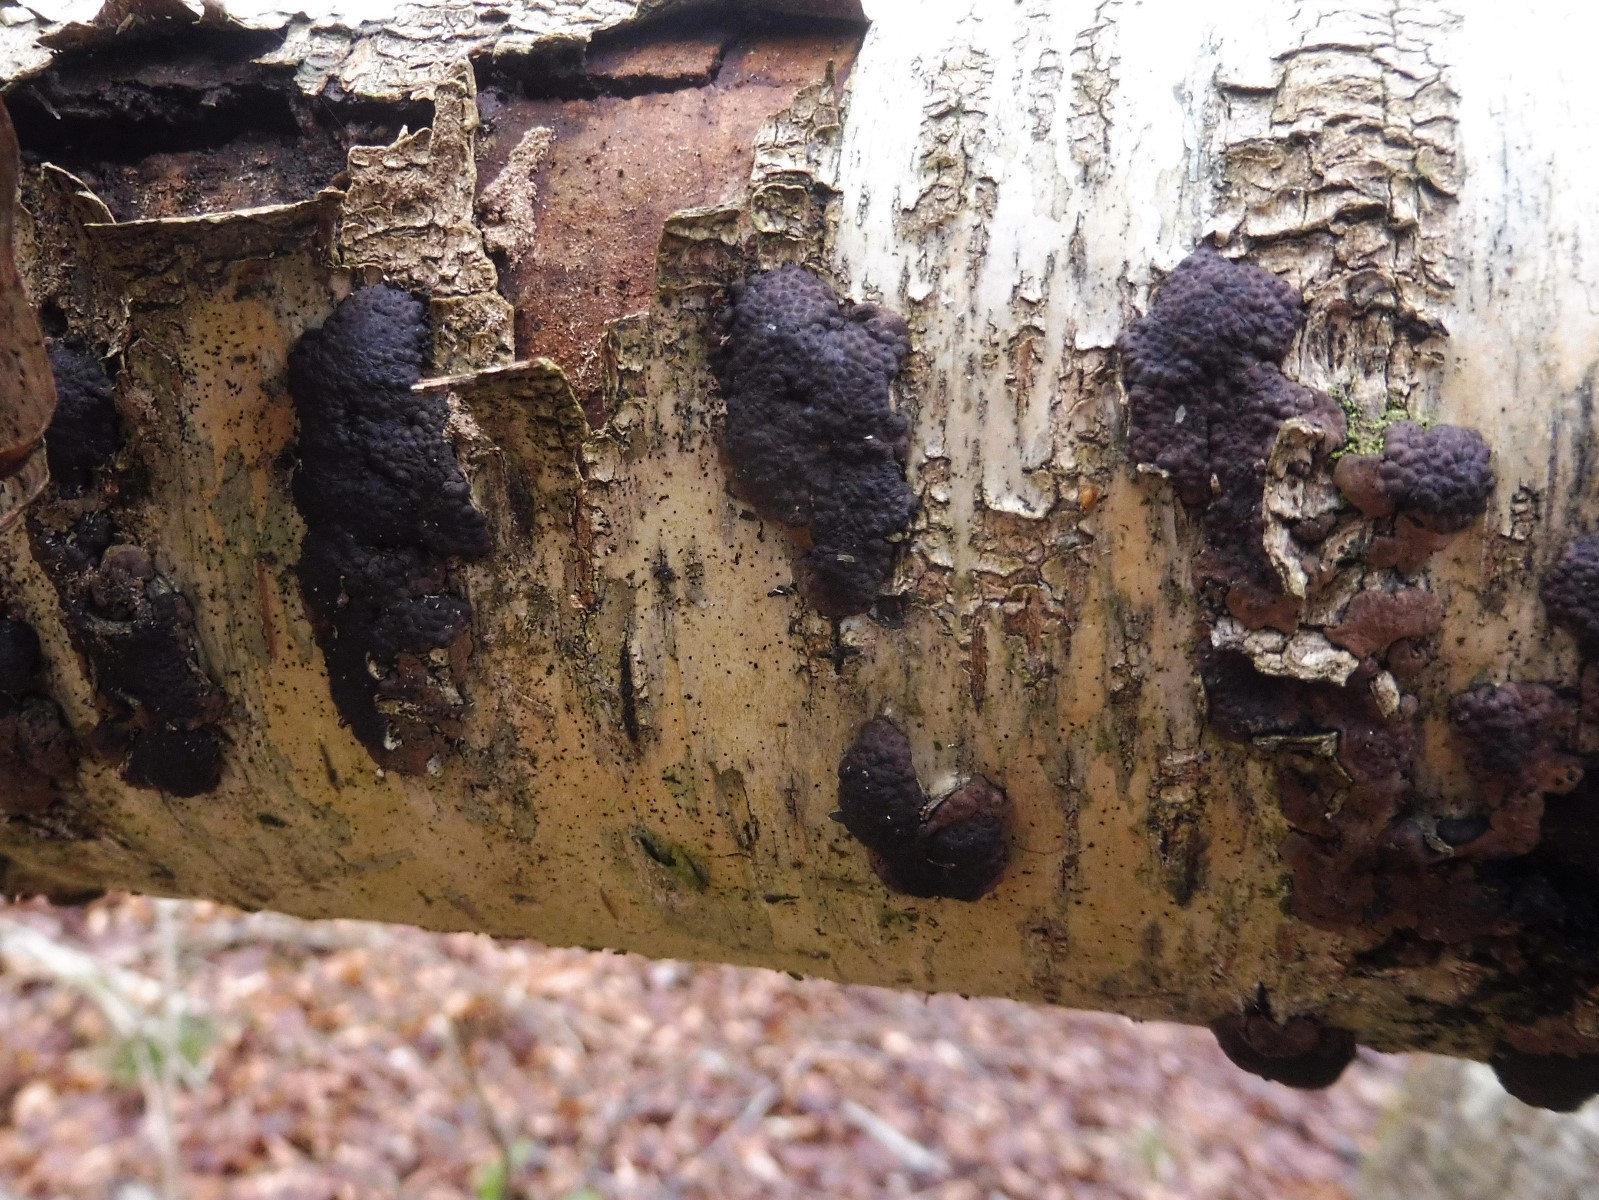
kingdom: Fungi
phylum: Ascomycota
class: Sordariomycetes
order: Xylariales
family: Hypoxylaceae
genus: Jackrogersella
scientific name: Jackrogersella multiformis
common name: foranderlig kulbær
